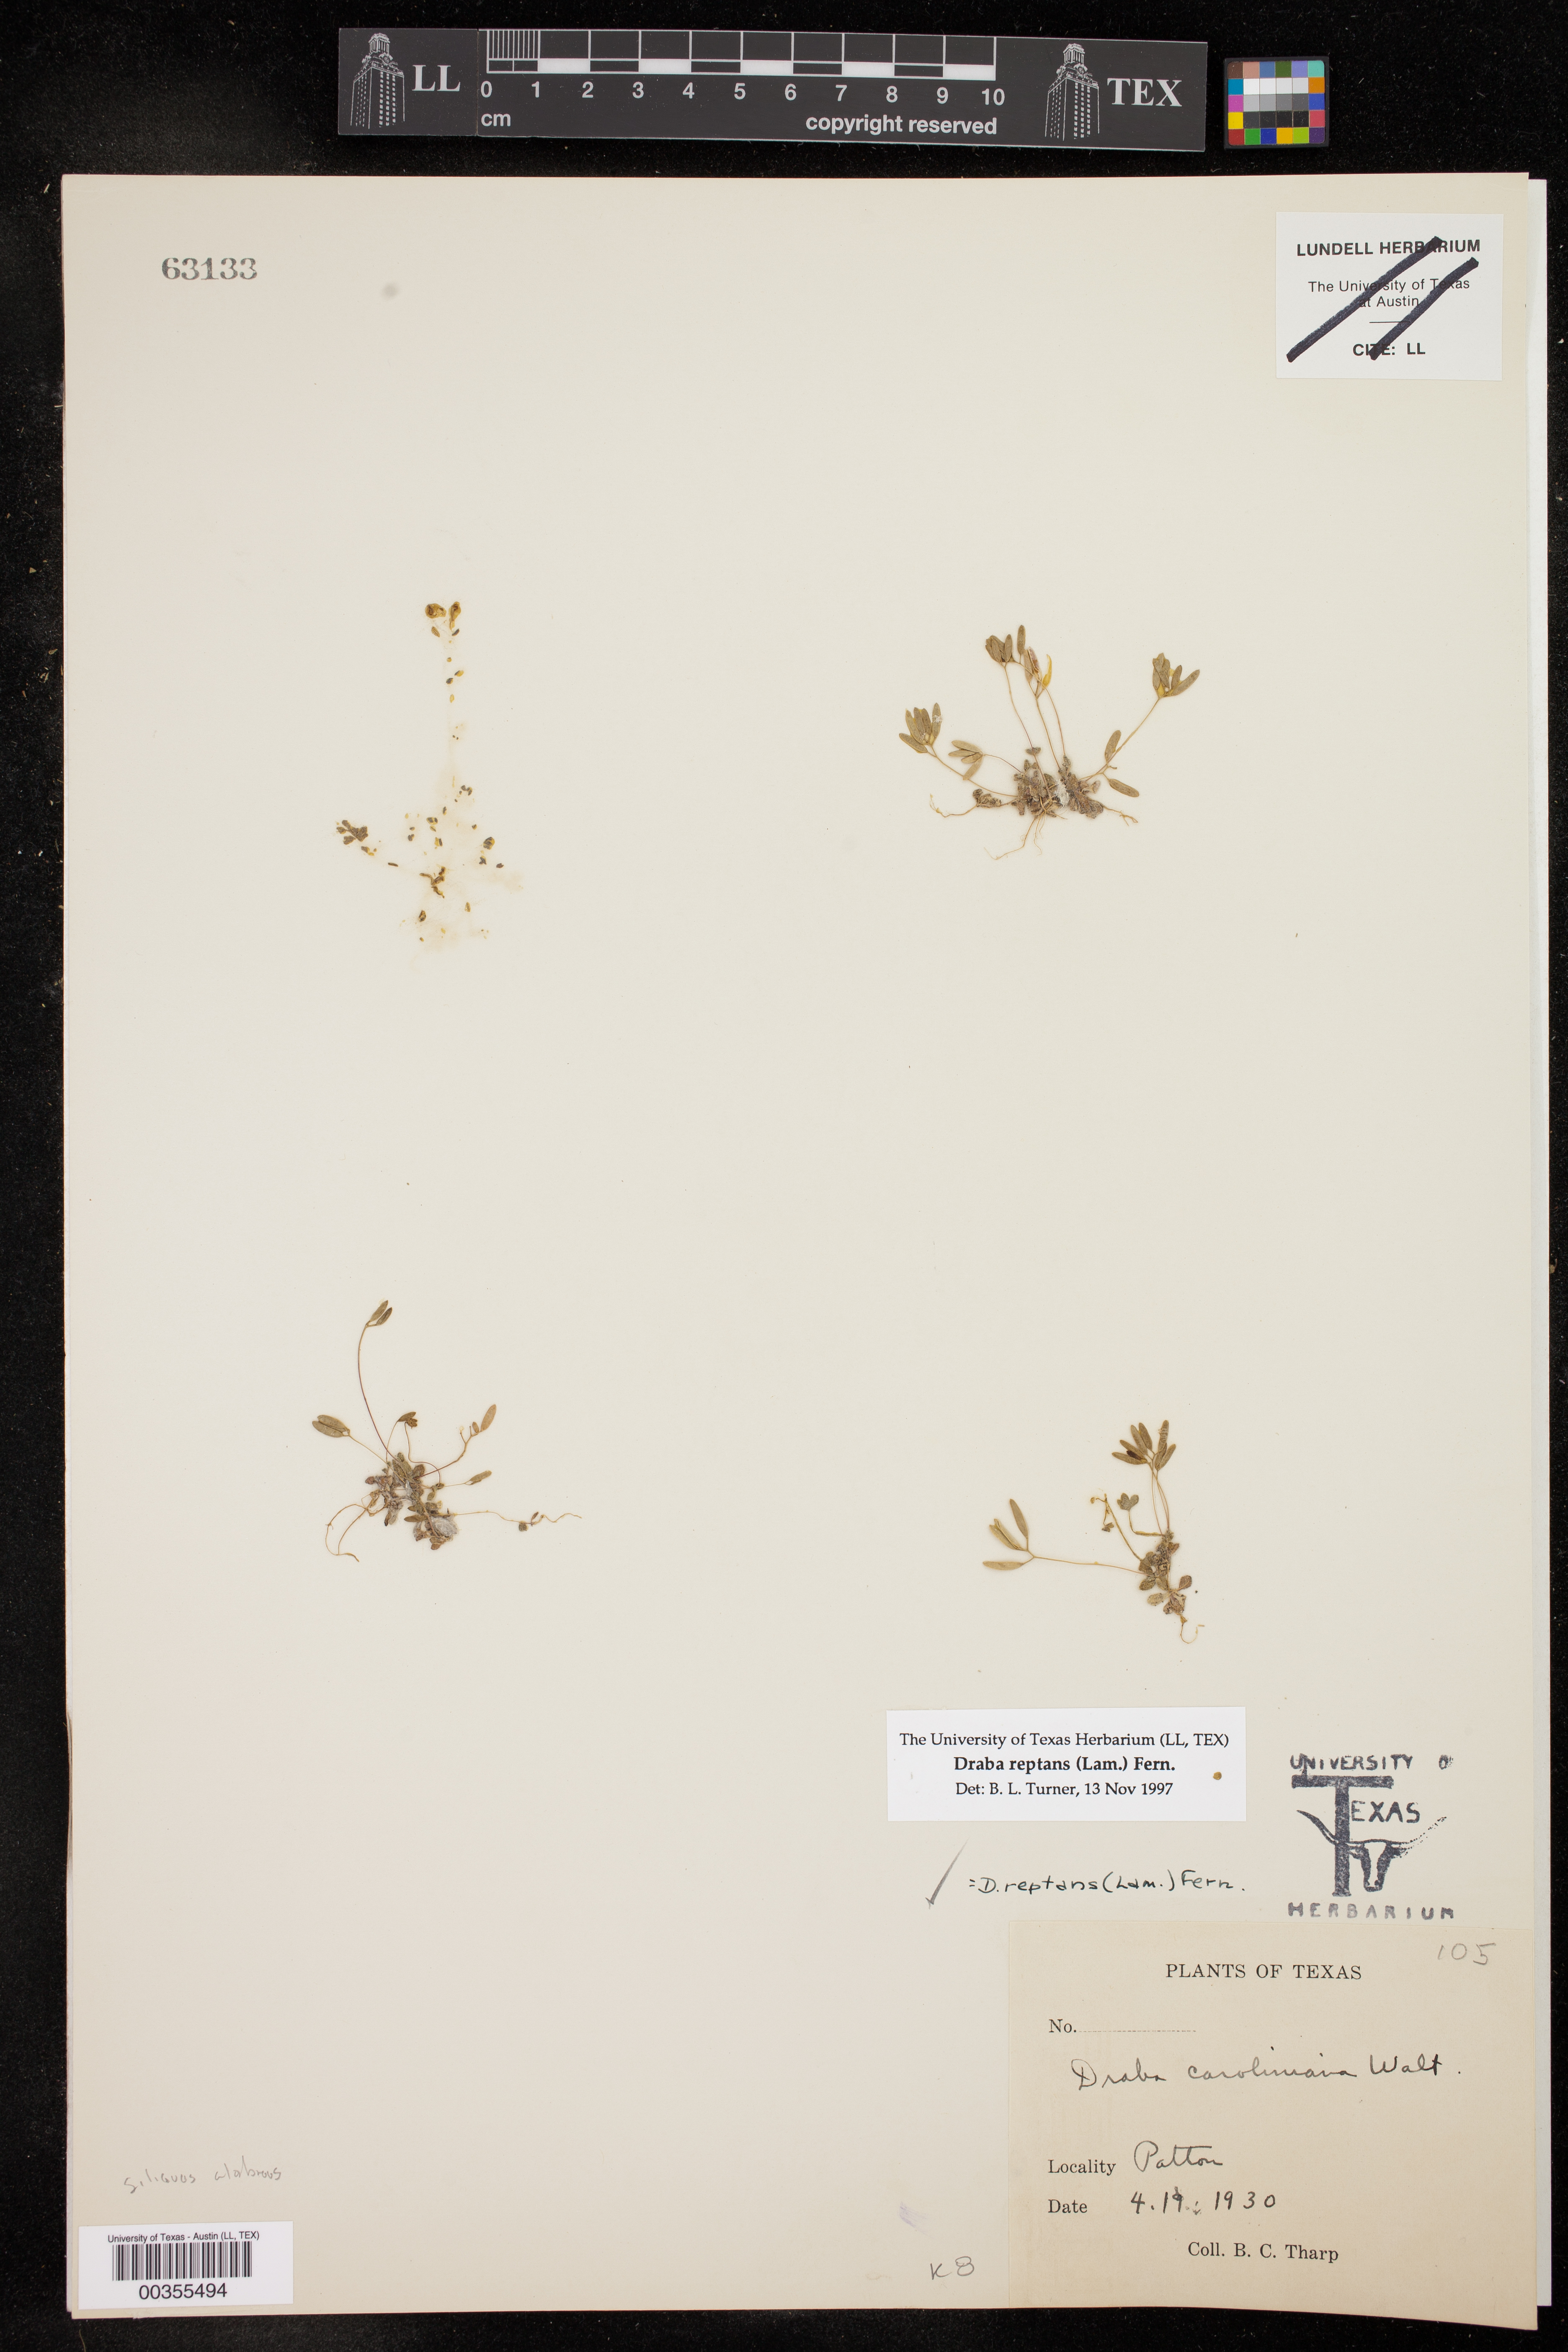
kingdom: Plantae
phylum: Tracheophyta
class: Magnoliopsida
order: Brassicales
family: Brassicaceae
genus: Tomostima
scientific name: Tomostima reptans
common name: Carolina draba
